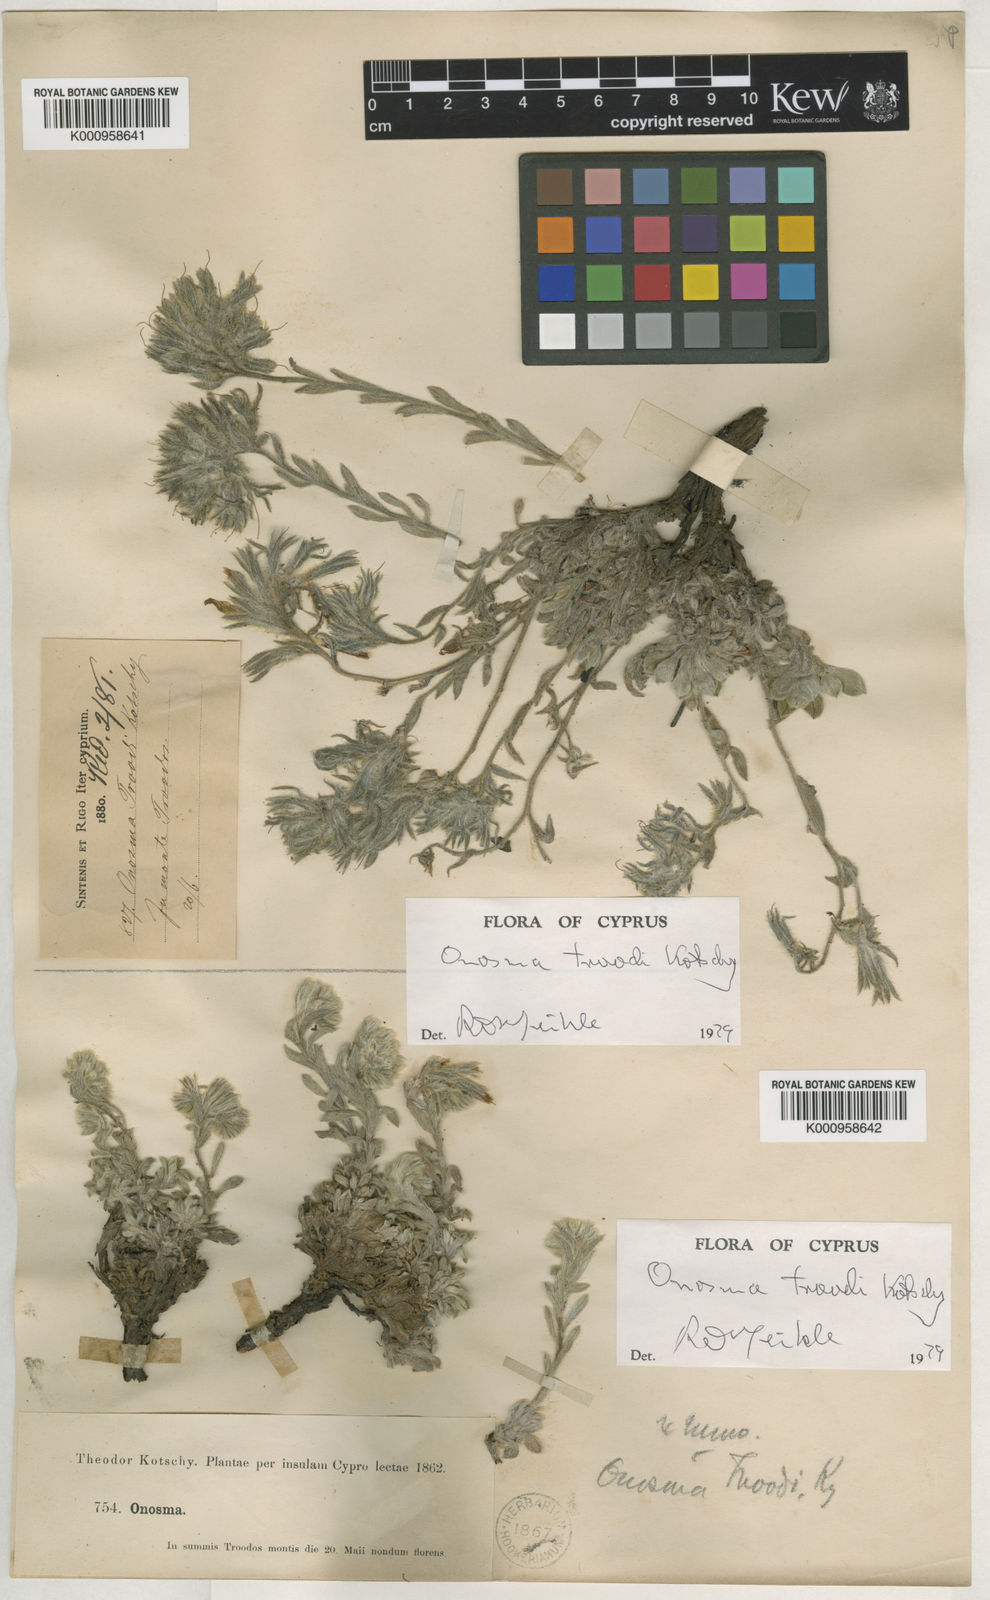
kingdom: Plantae
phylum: Tracheophyta
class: Magnoliopsida
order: Boraginales
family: Boraginaceae
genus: Onosma
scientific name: Onosma troodi
